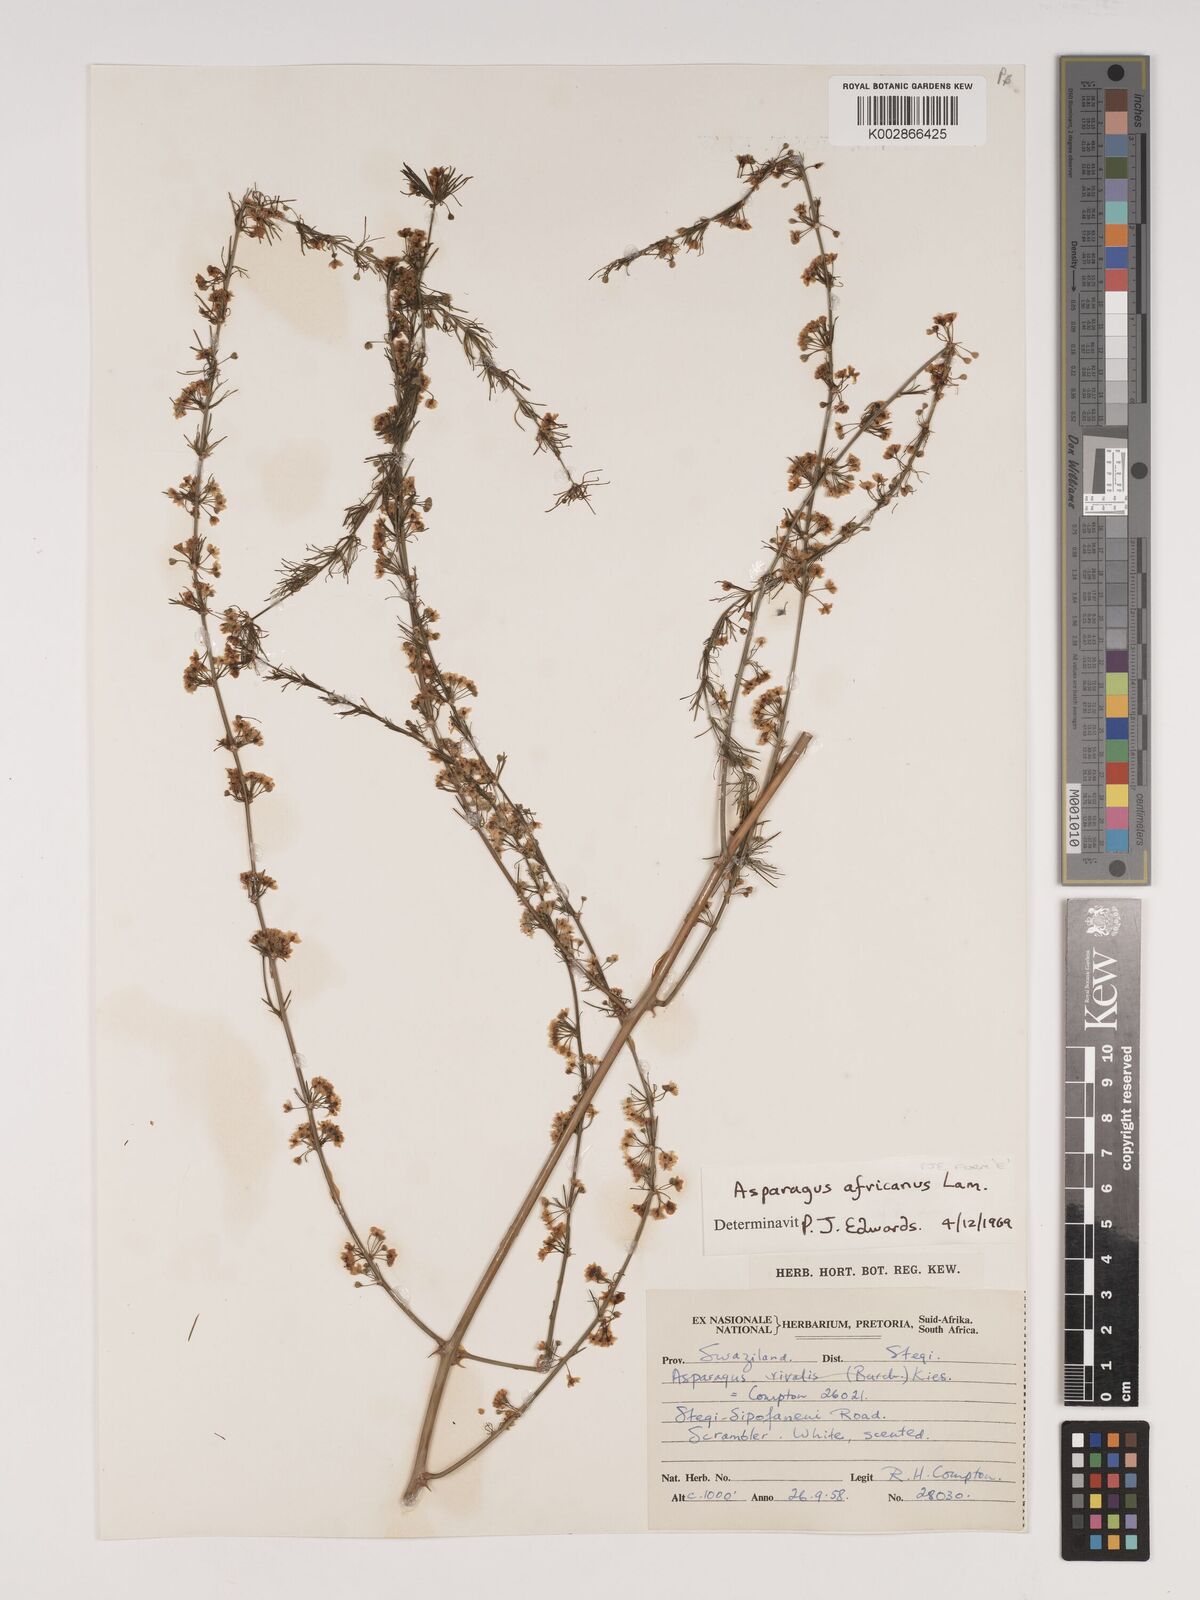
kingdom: Plantae
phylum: Tracheophyta
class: Liliopsida
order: Asparagales
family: Asparagaceae
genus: Asparagus
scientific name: Asparagus africanus
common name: Asparagus-fern
